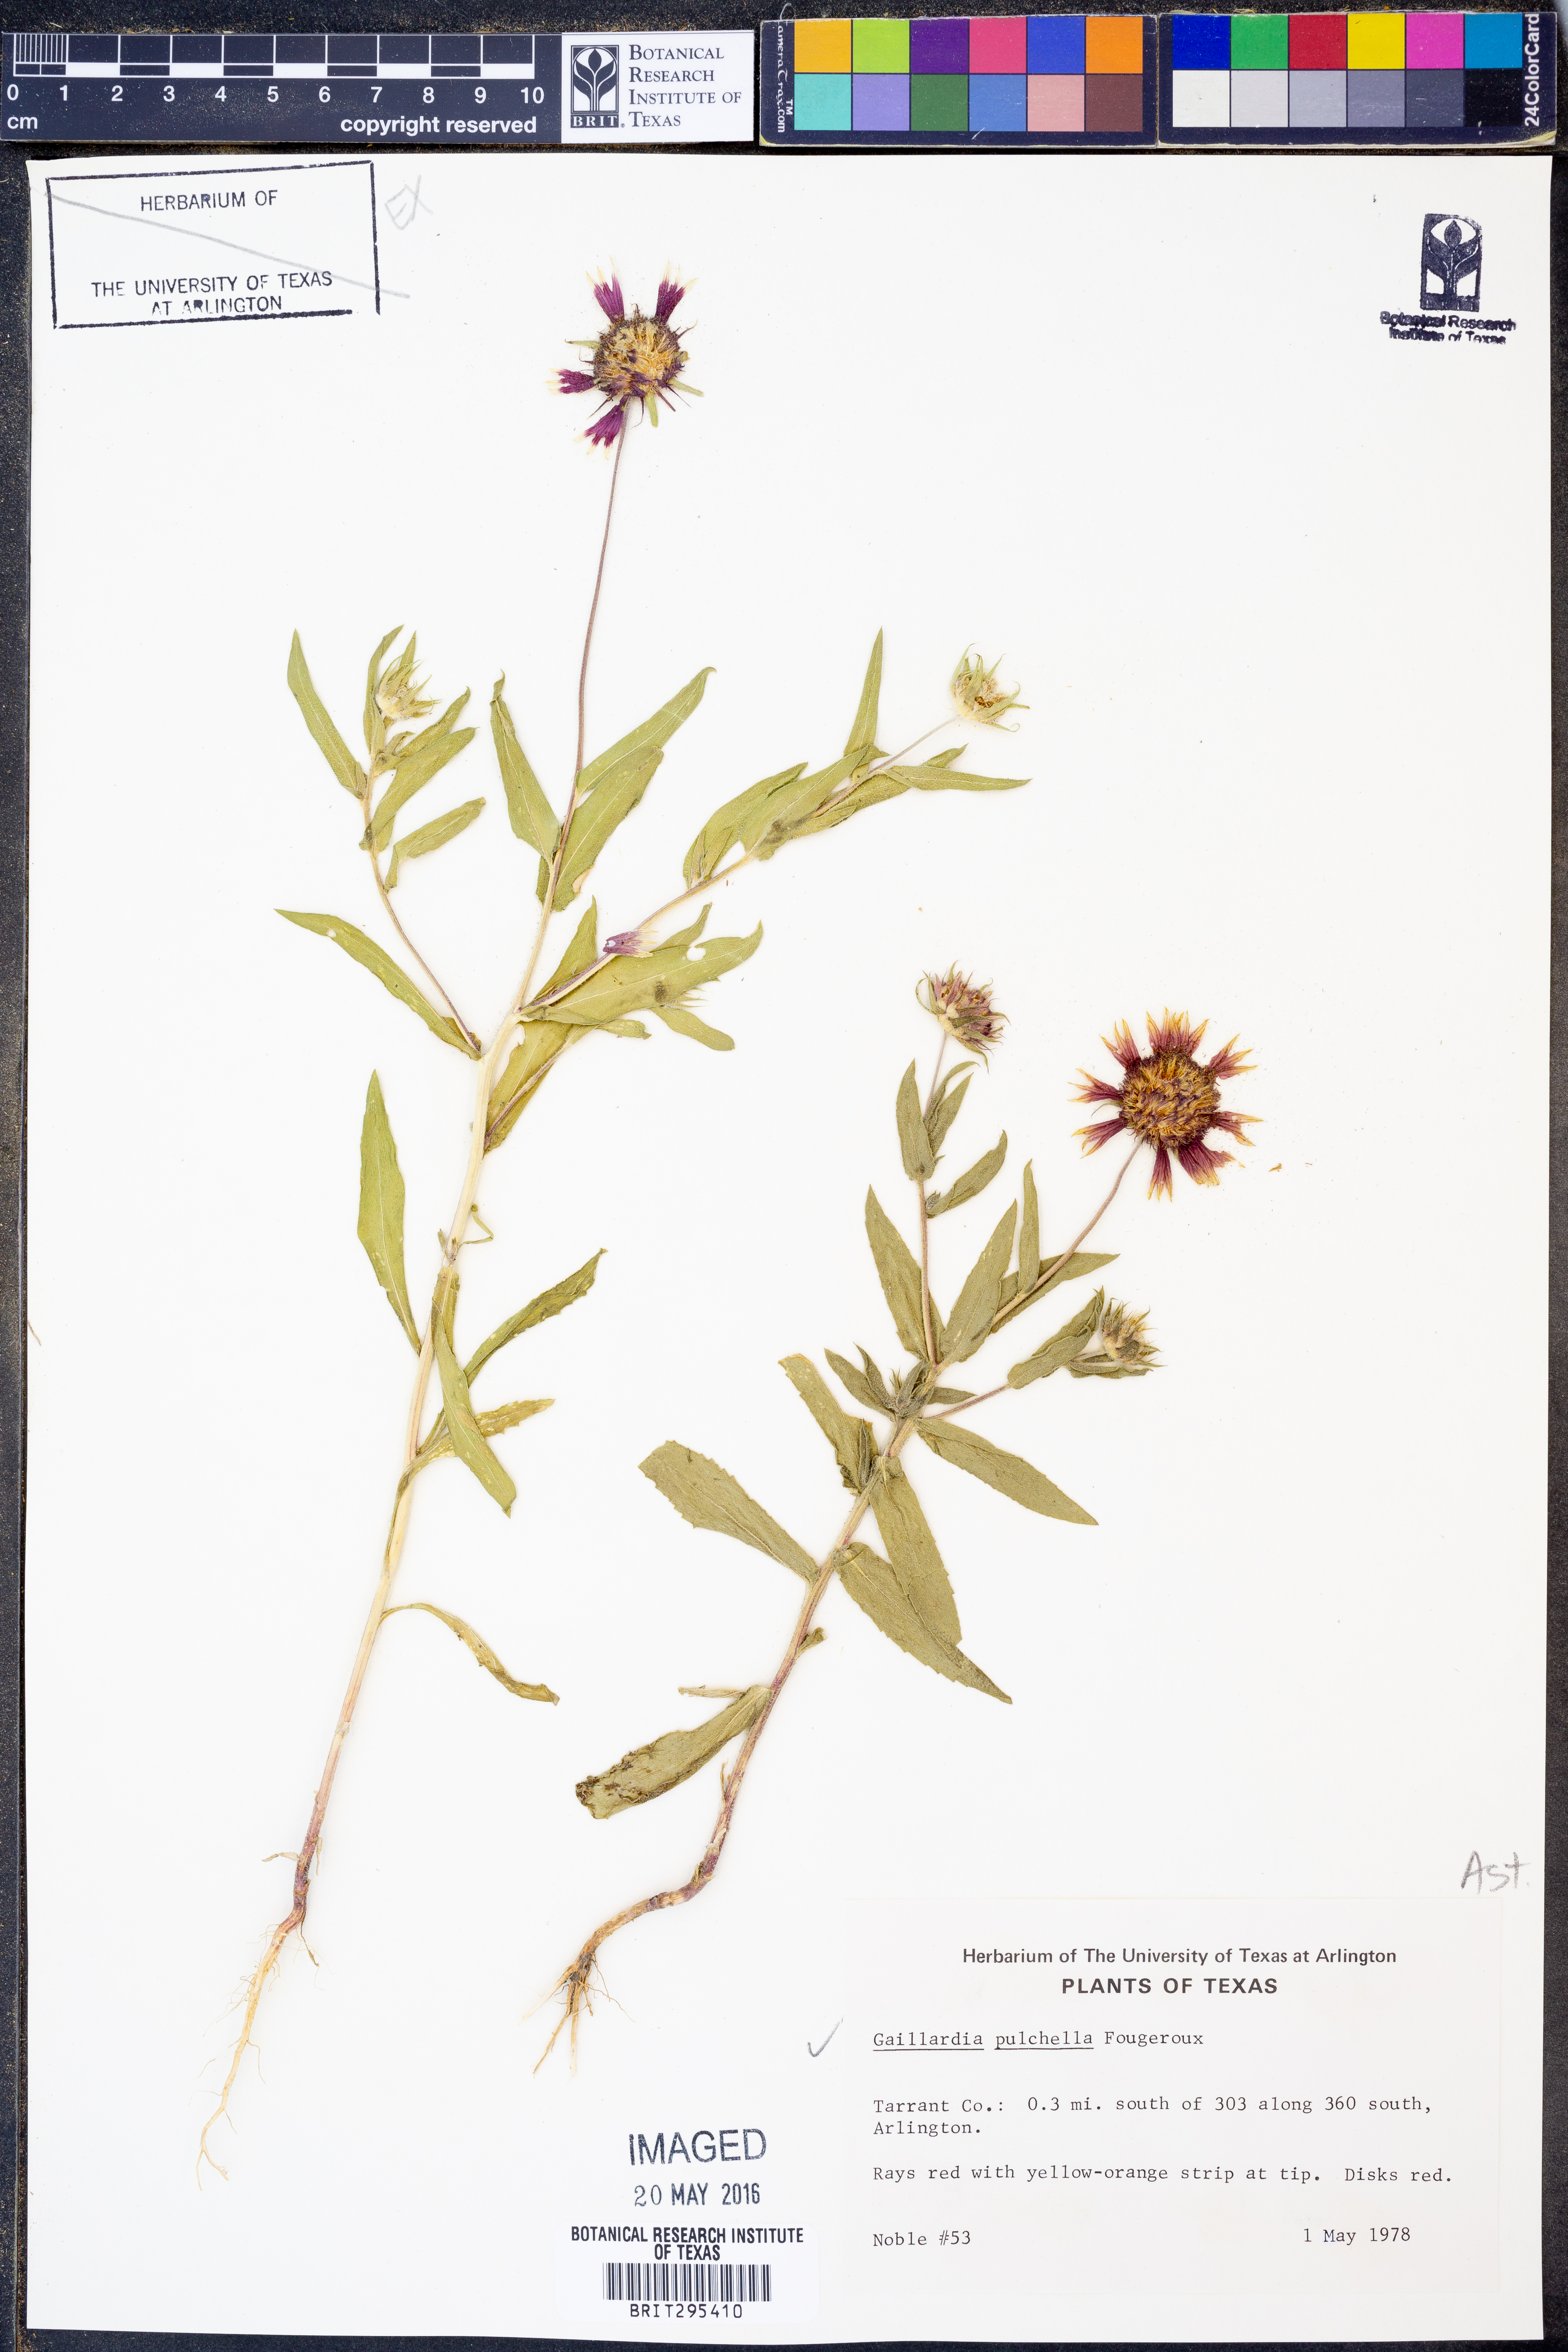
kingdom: Plantae
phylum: Tracheophyta
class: Magnoliopsida
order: Asterales
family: Asteraceae
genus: Gaillardia
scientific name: Gaillardia pulchella
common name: Firewheel
